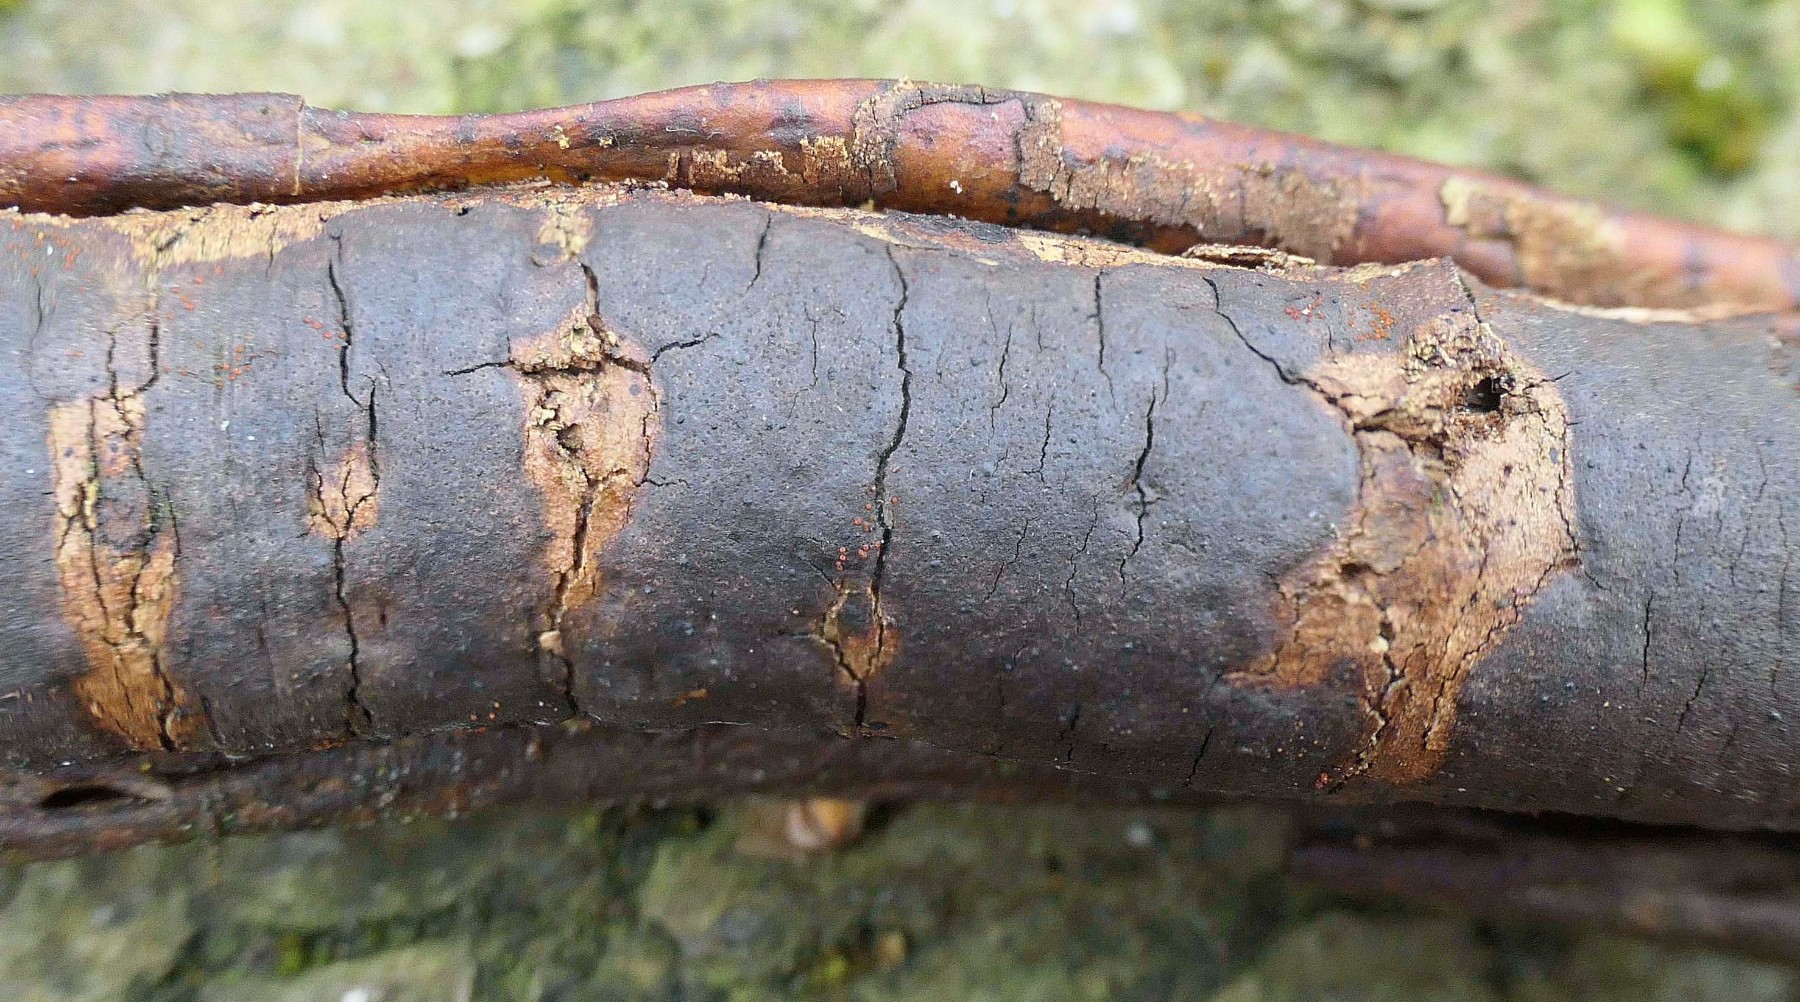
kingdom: Fungi
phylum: Ascomycota
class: Sordariomycetes
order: Xylariales
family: Diatrypaceae
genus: Diatrype
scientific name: Diatrype decorticata
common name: barksprænger-kulskorpe
